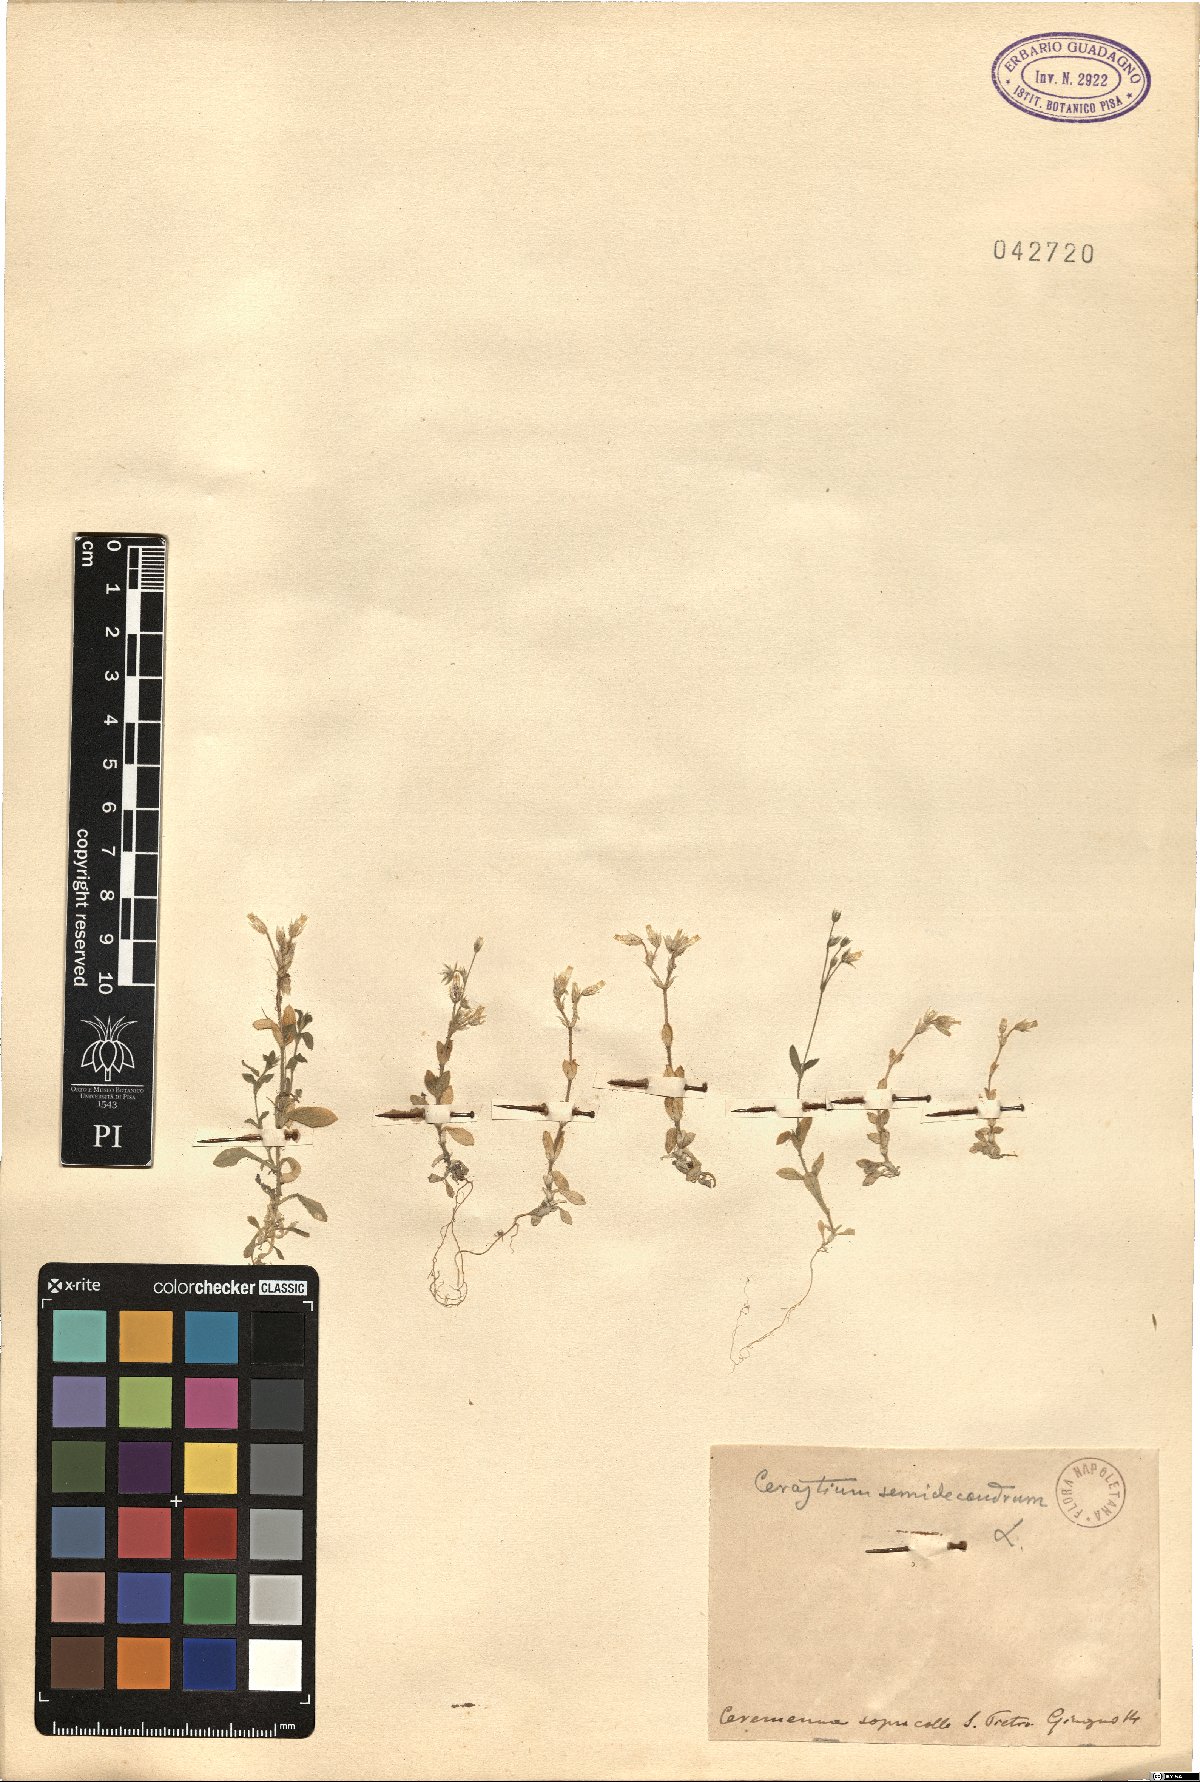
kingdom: Plantae
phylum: Tracheophyta
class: Magnoliopsida
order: Caryophyllales
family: Caryophyllaceae
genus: Cerastium
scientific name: Cerastium semidecandrum
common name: Little mouse-ear
